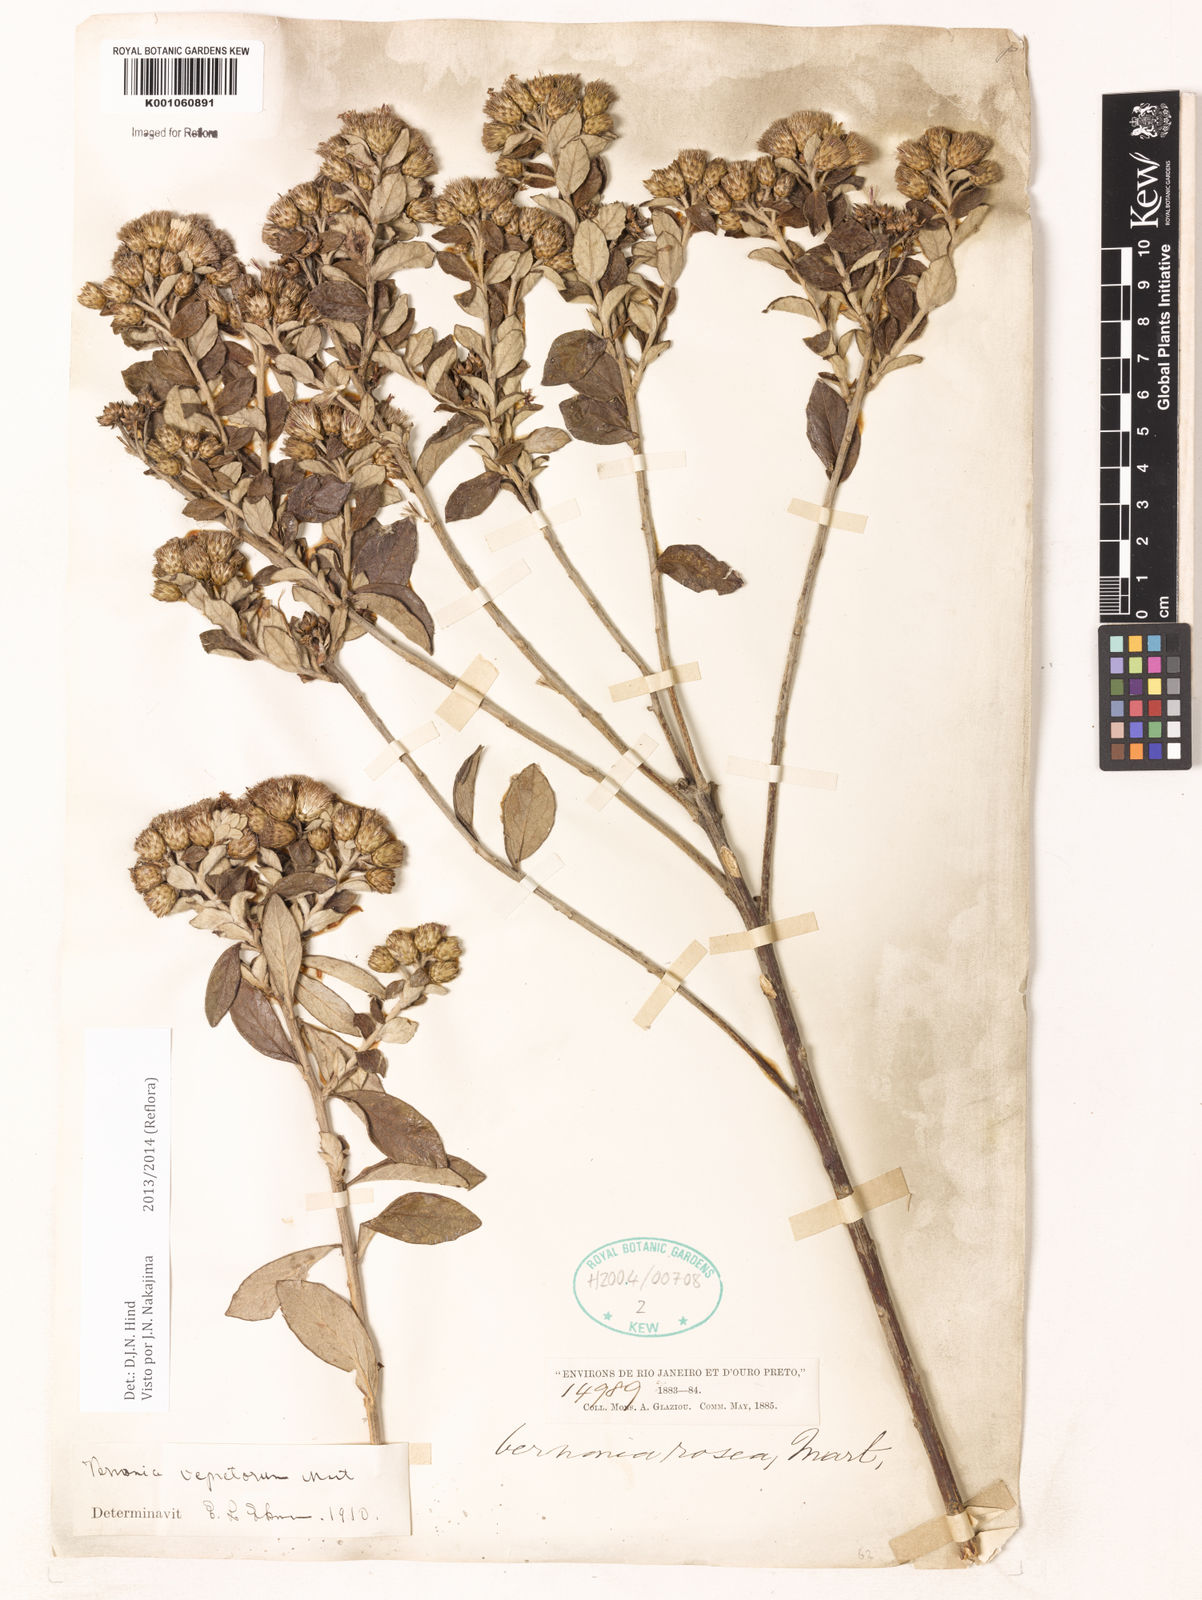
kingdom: Plantae
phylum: Tracheophyta
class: Magnoliopsida
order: Asterales
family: Asteraceae
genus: Lessingianthus
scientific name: Lessingianthus vepretorum
